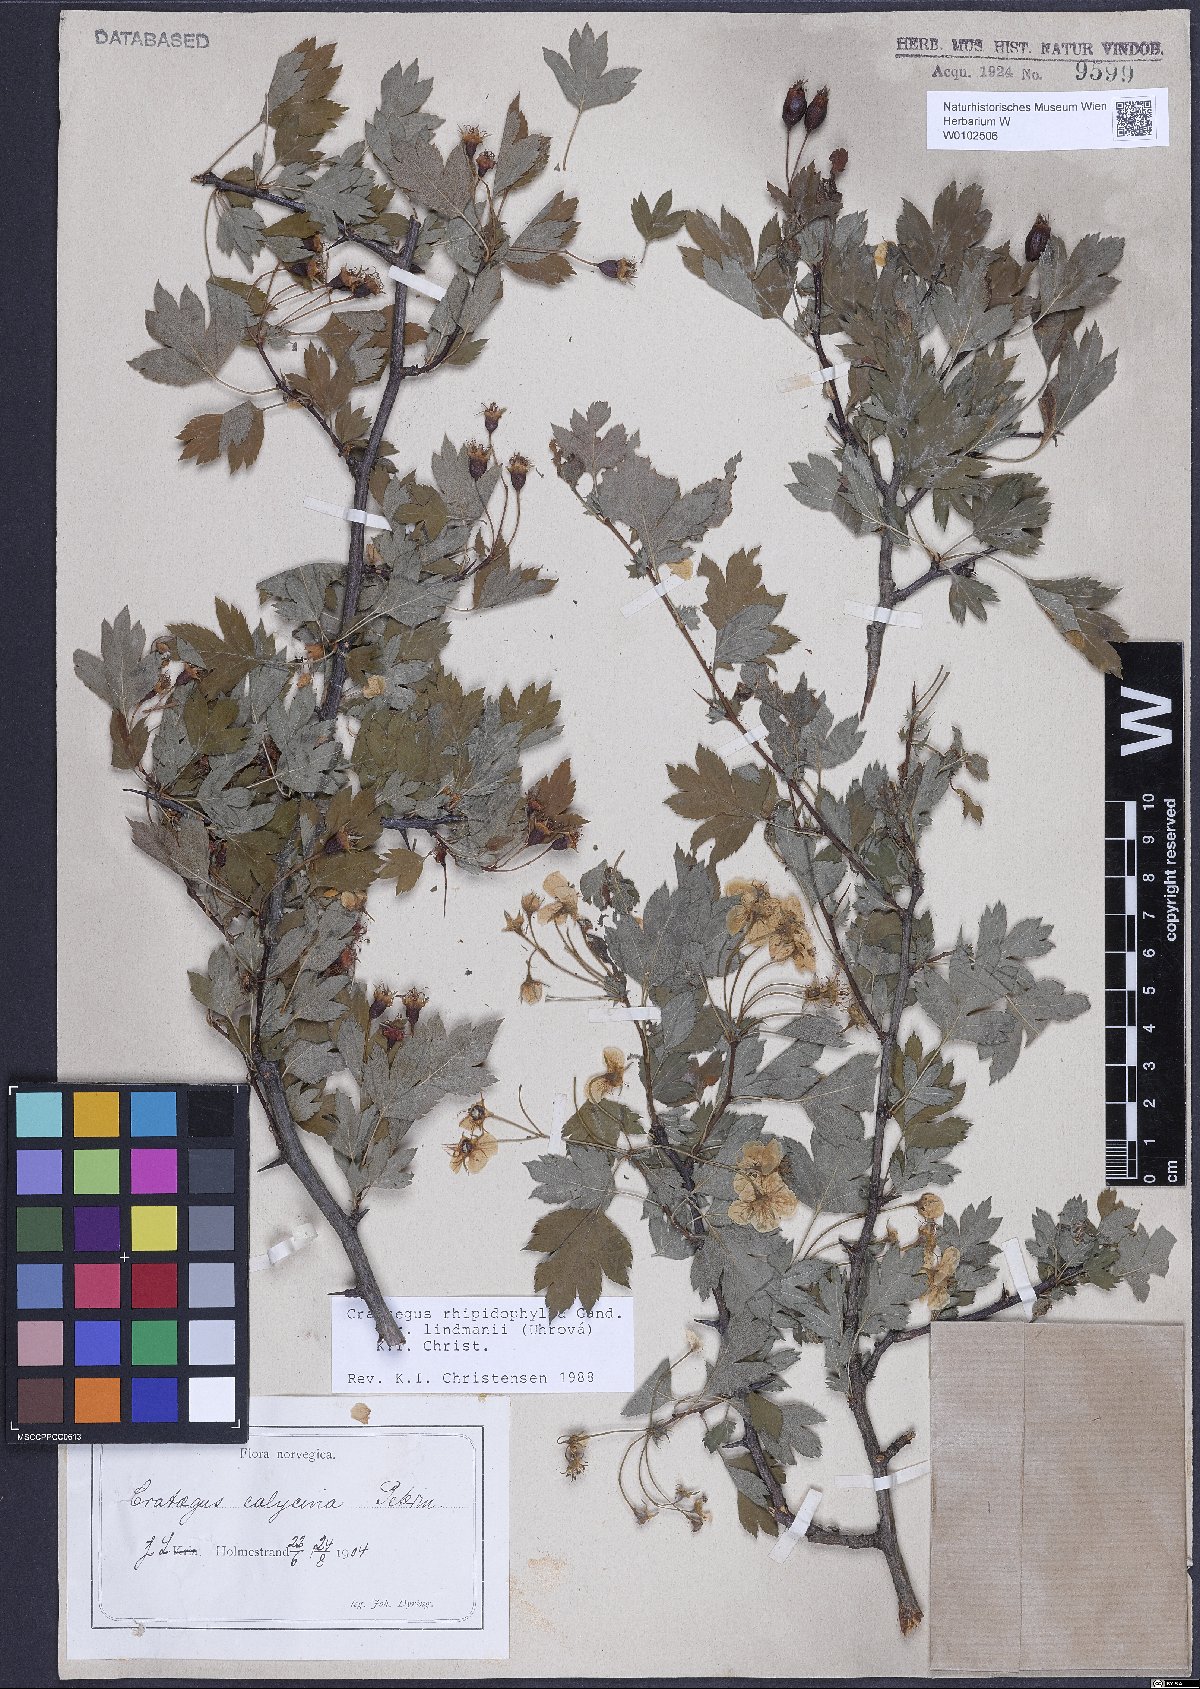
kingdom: Plantae
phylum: Tracheophyta
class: Magnoliopsida
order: Rosales
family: Rosaceae
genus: Crataegus
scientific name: Crataegus lindmanii
